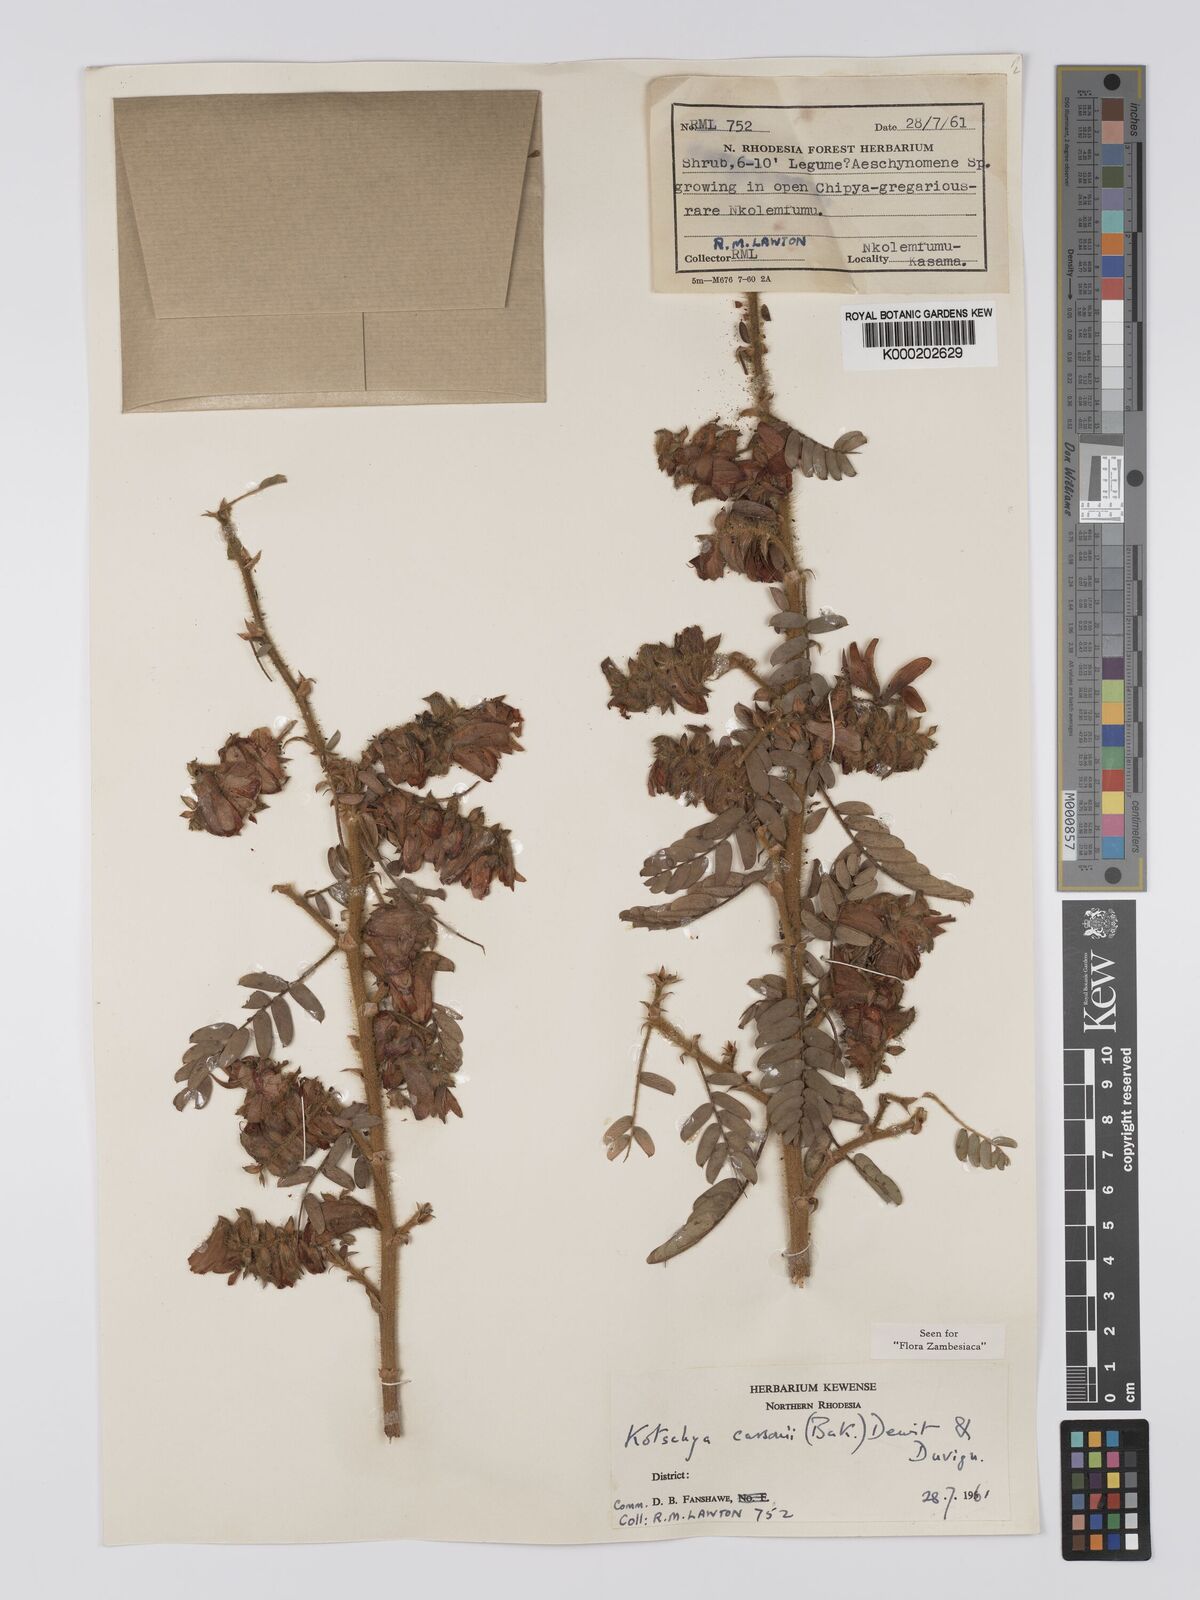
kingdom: Plantae
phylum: Tracheophyta
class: Magnoliopsida
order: Fabales
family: Fabaceae
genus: Kotschya
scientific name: Kotschya carsonii
